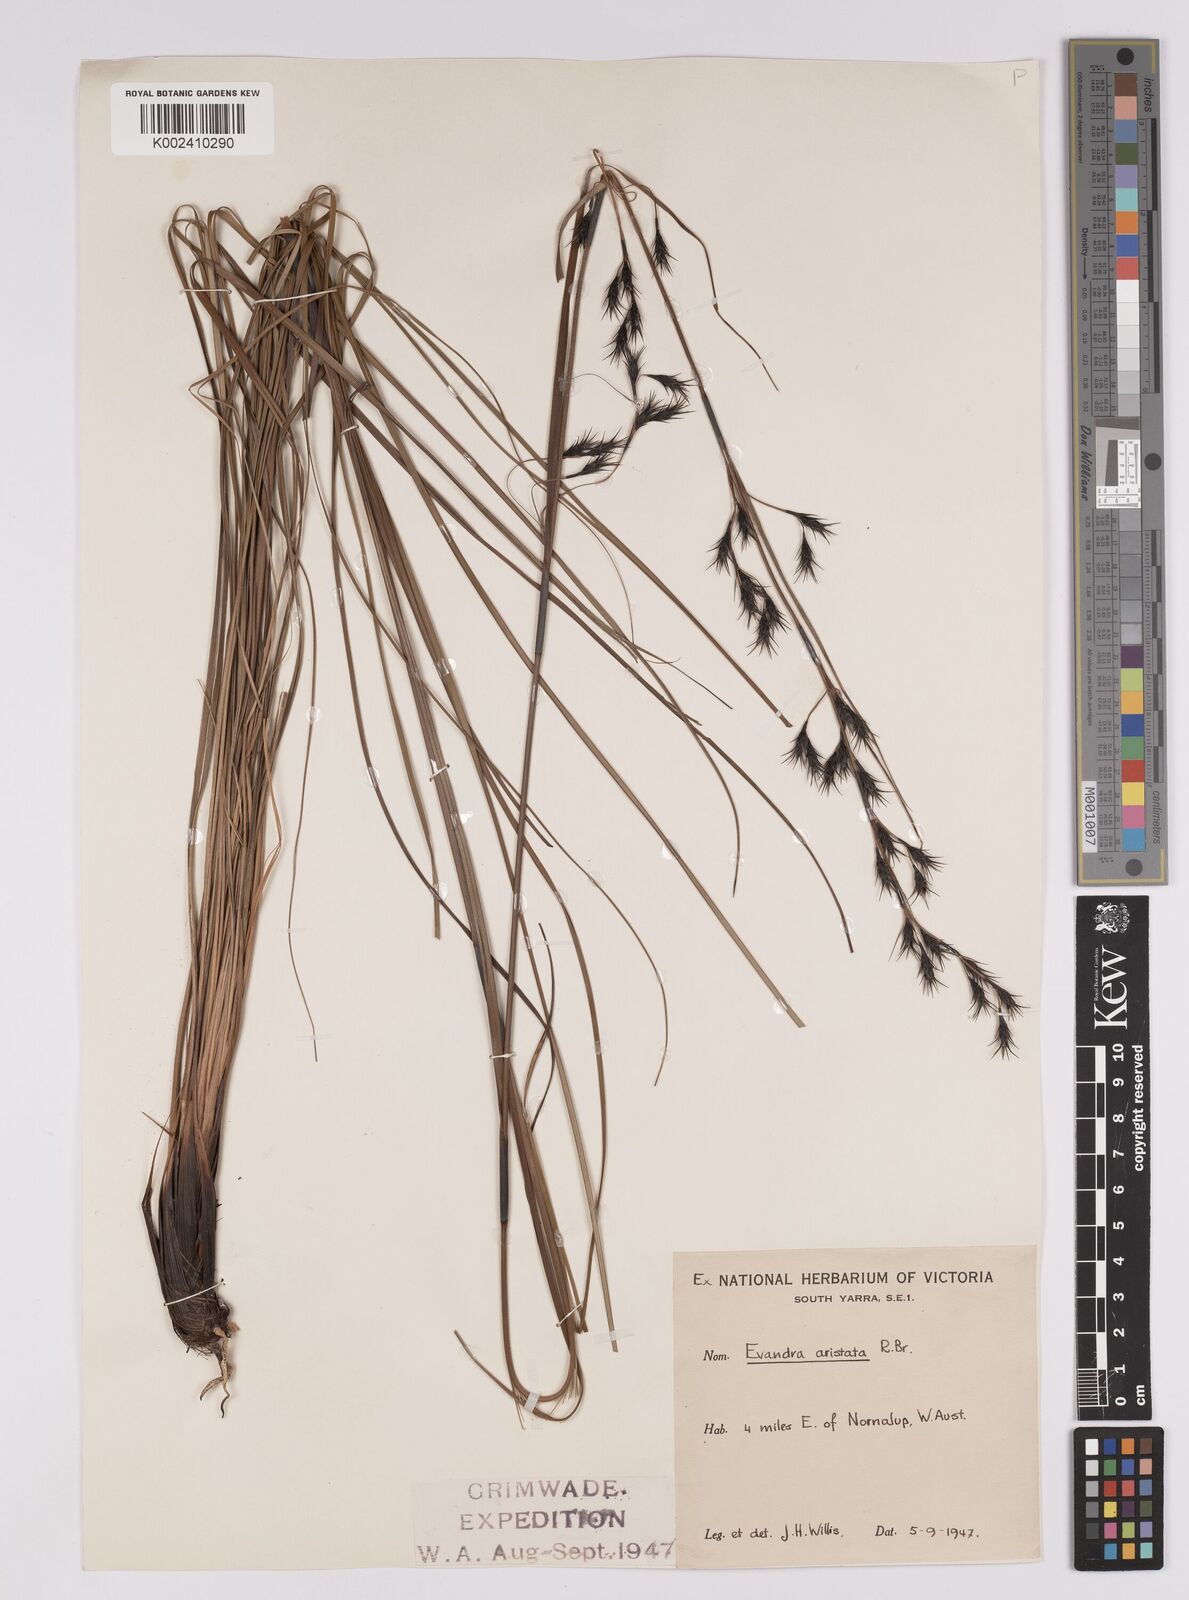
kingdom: Plantae
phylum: Tracheophyta
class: Liliopsida
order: Poales
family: Cyperaceae
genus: Evandra
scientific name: Evandra aristata
